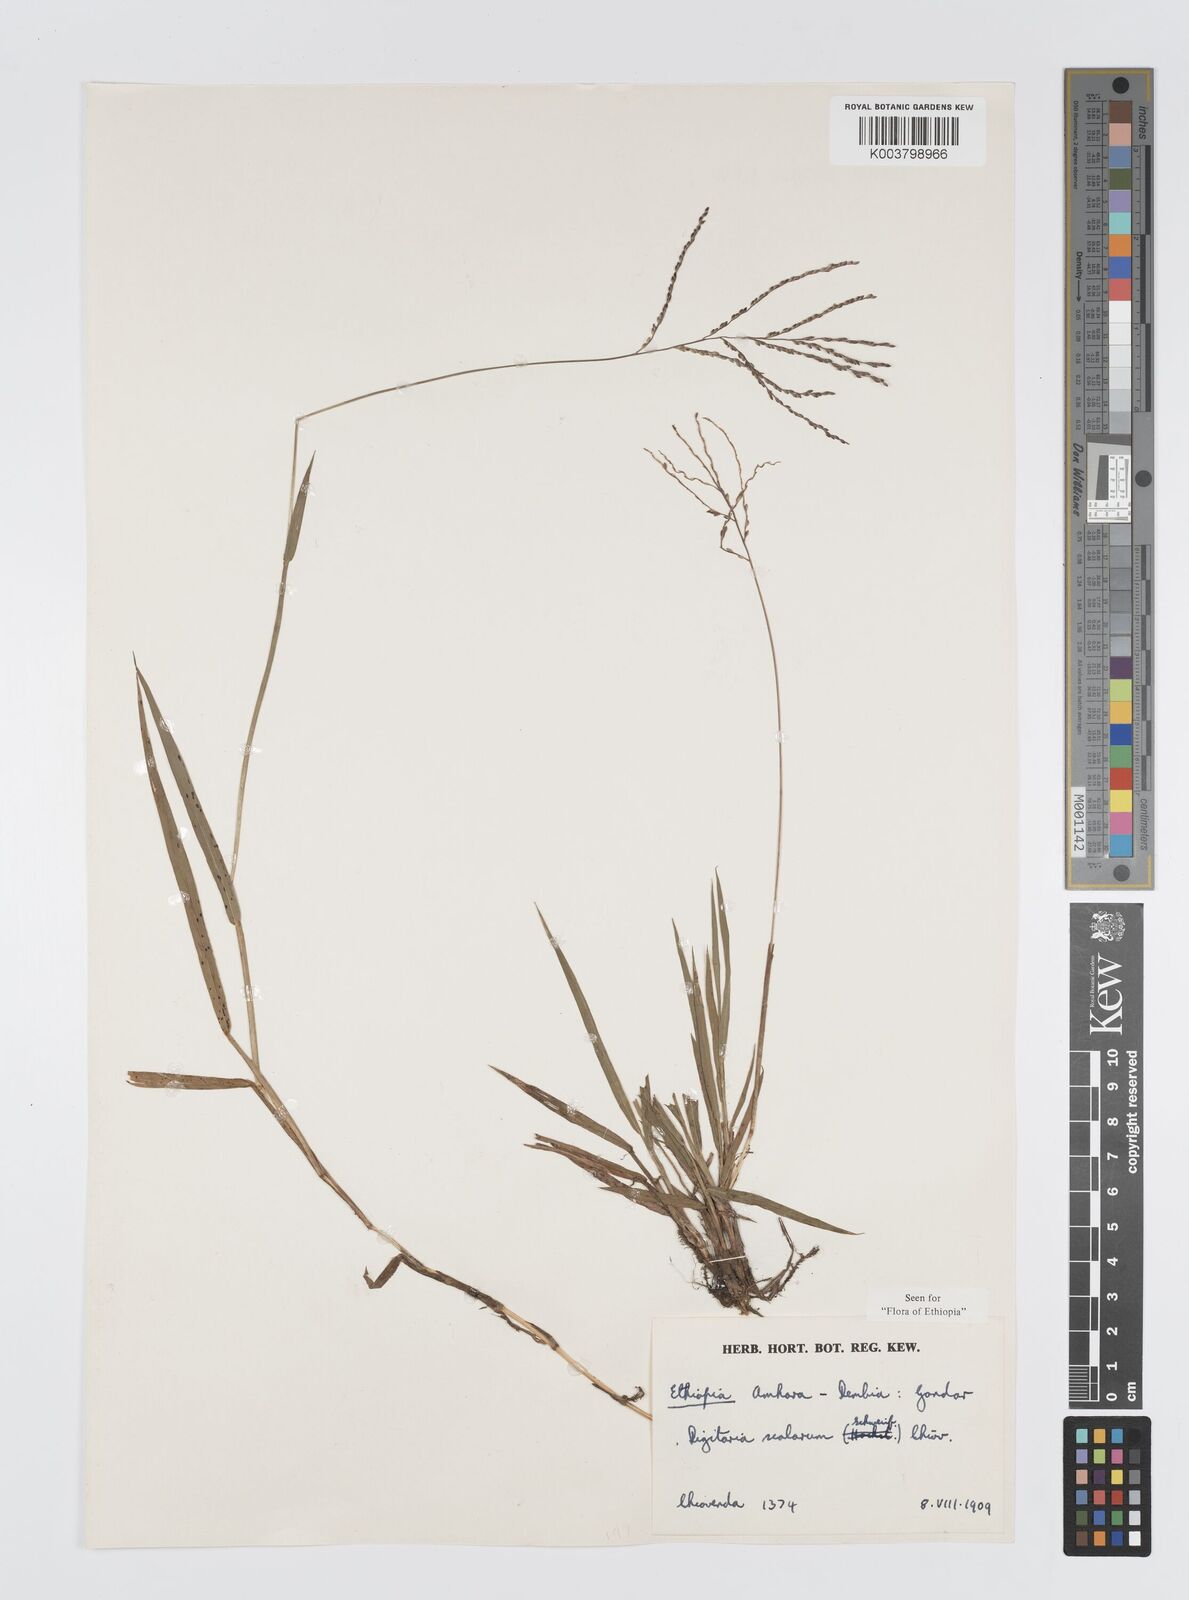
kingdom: Plantae
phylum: Tracheophyta
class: Liliopsida
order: Poales
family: Poaceae
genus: Digitaria
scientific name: Digitaria abyssinica
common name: African couchgrass
